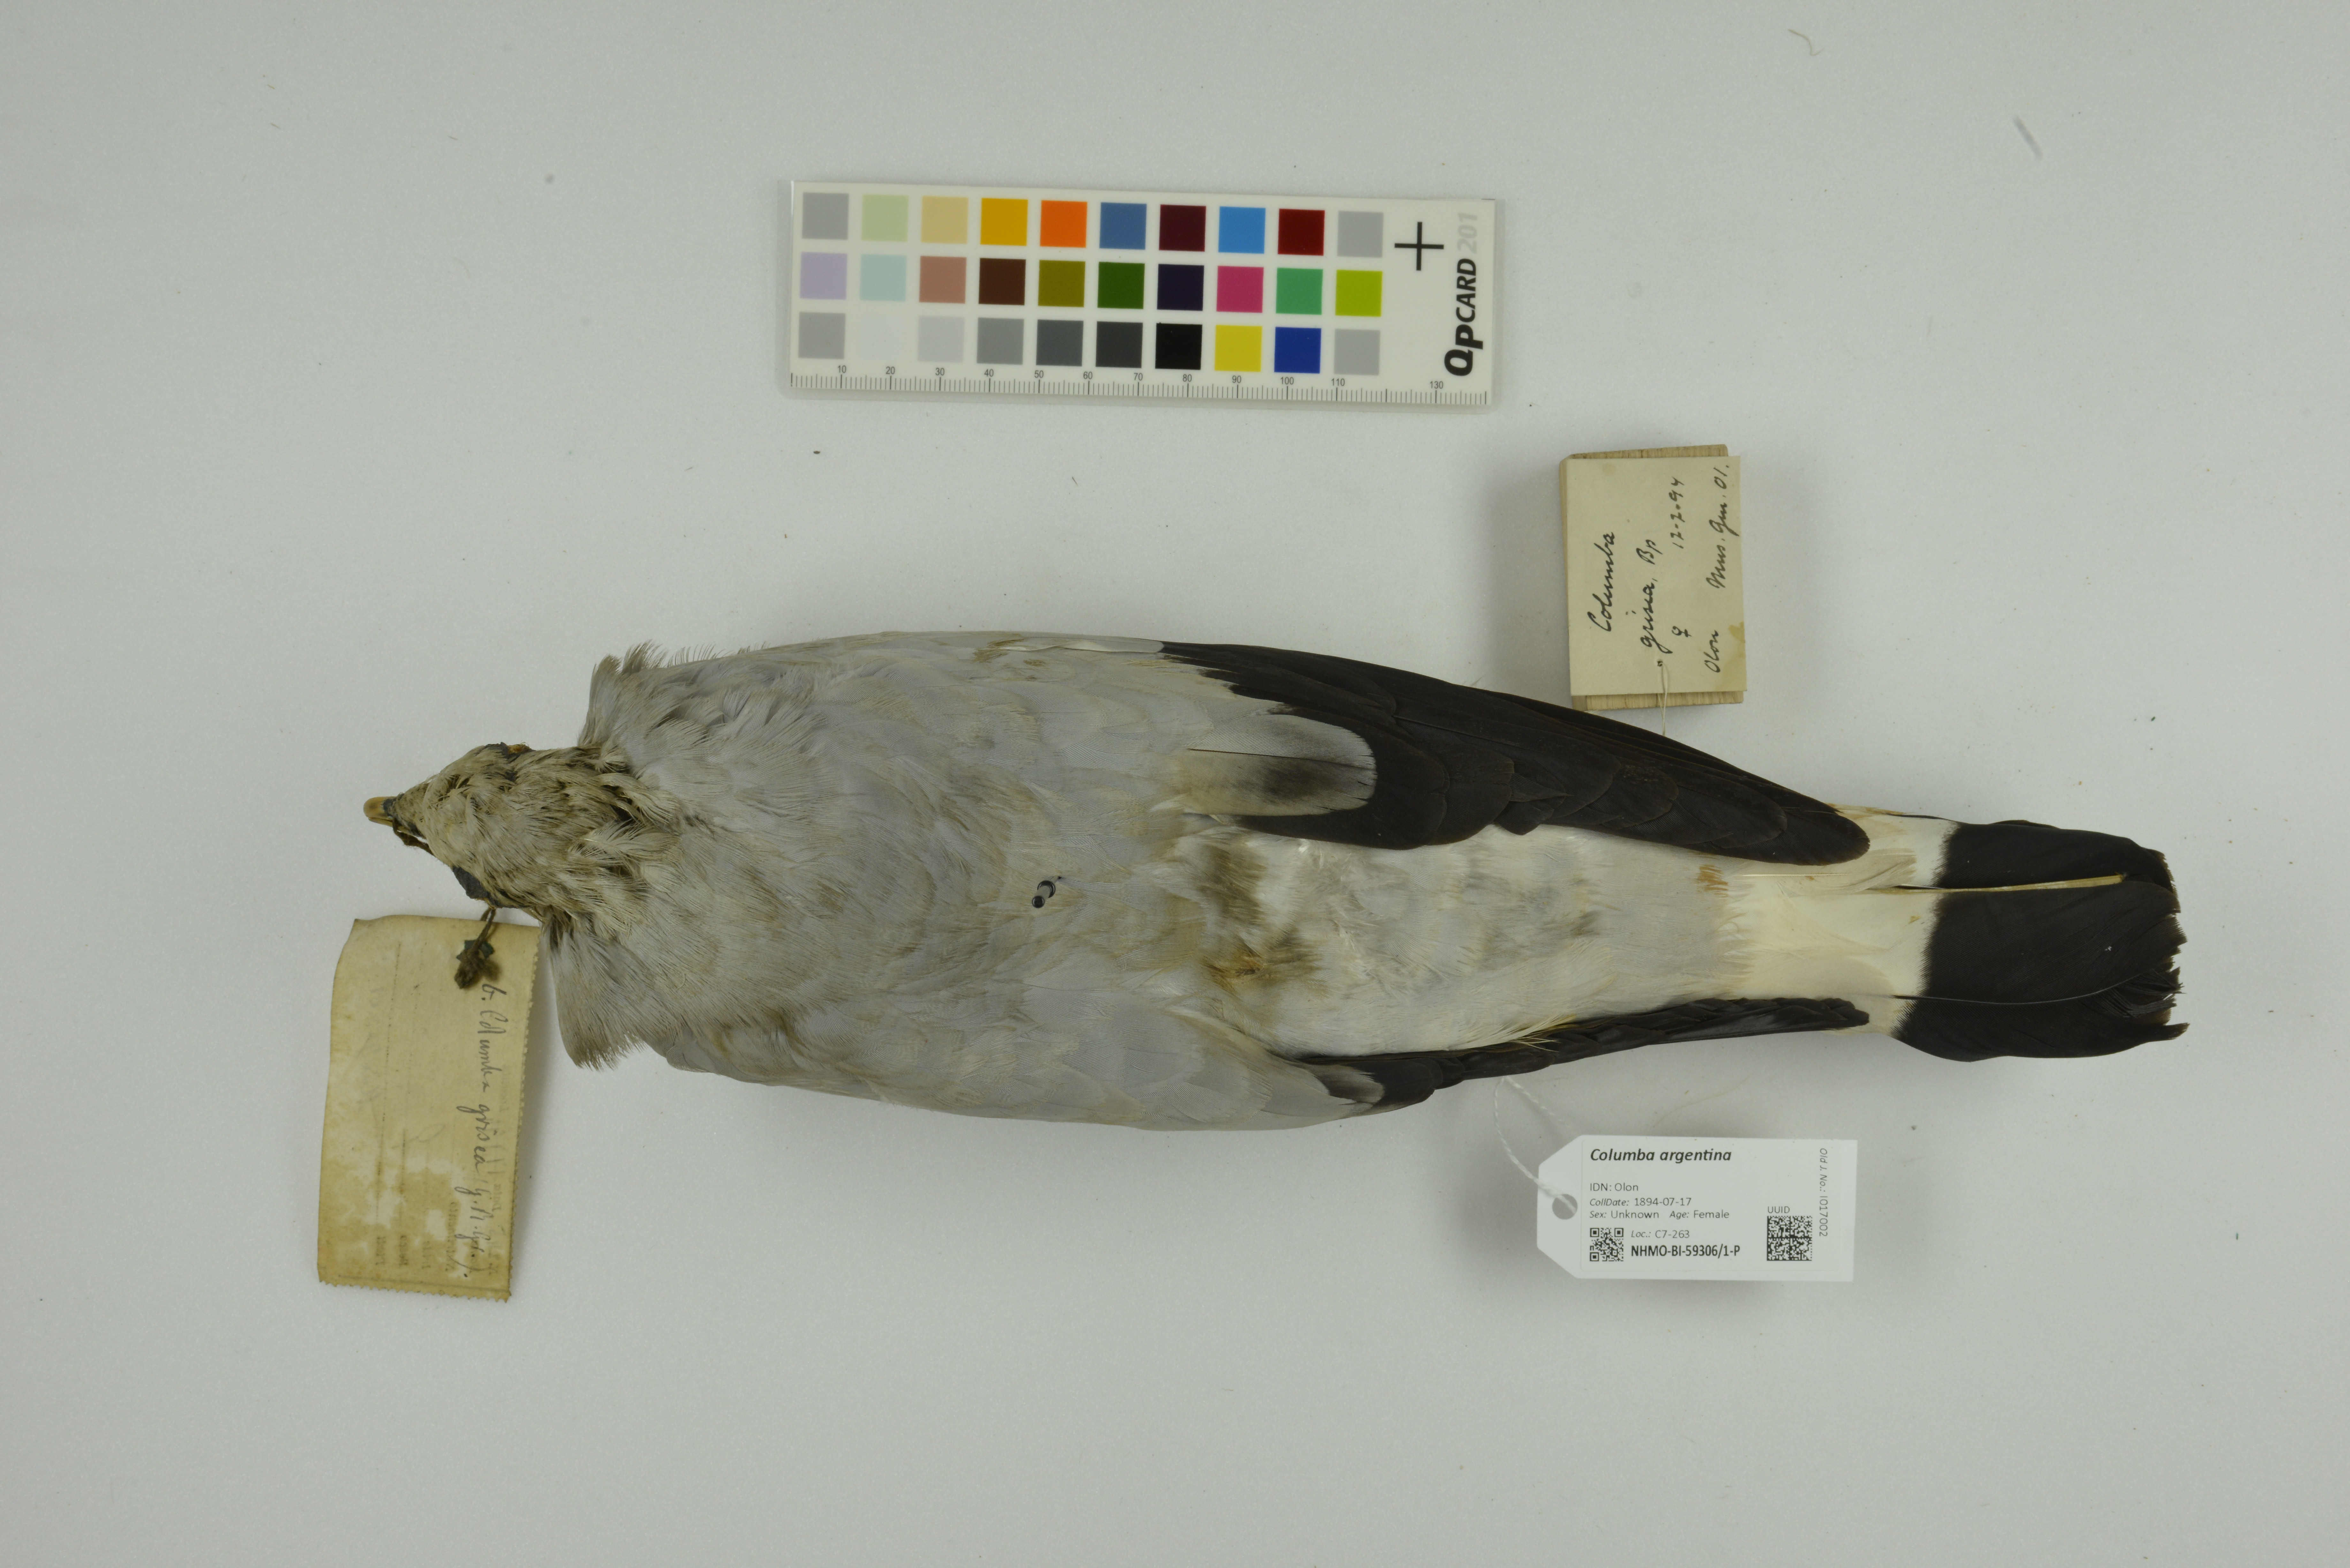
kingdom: Animalia
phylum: Chordata
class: Aves
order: Columbiformes
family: Columbidae
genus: Columba
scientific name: Columba argentina
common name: Silvery pigeon
